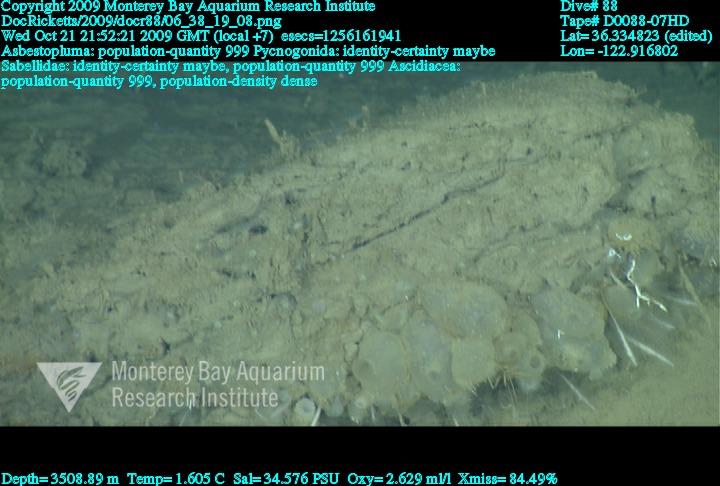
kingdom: Animalia
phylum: Porifera
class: Demospongiae
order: Poecilosclerida
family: Cladorhizidae
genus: Asbestopluma
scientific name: Asbestopluma
